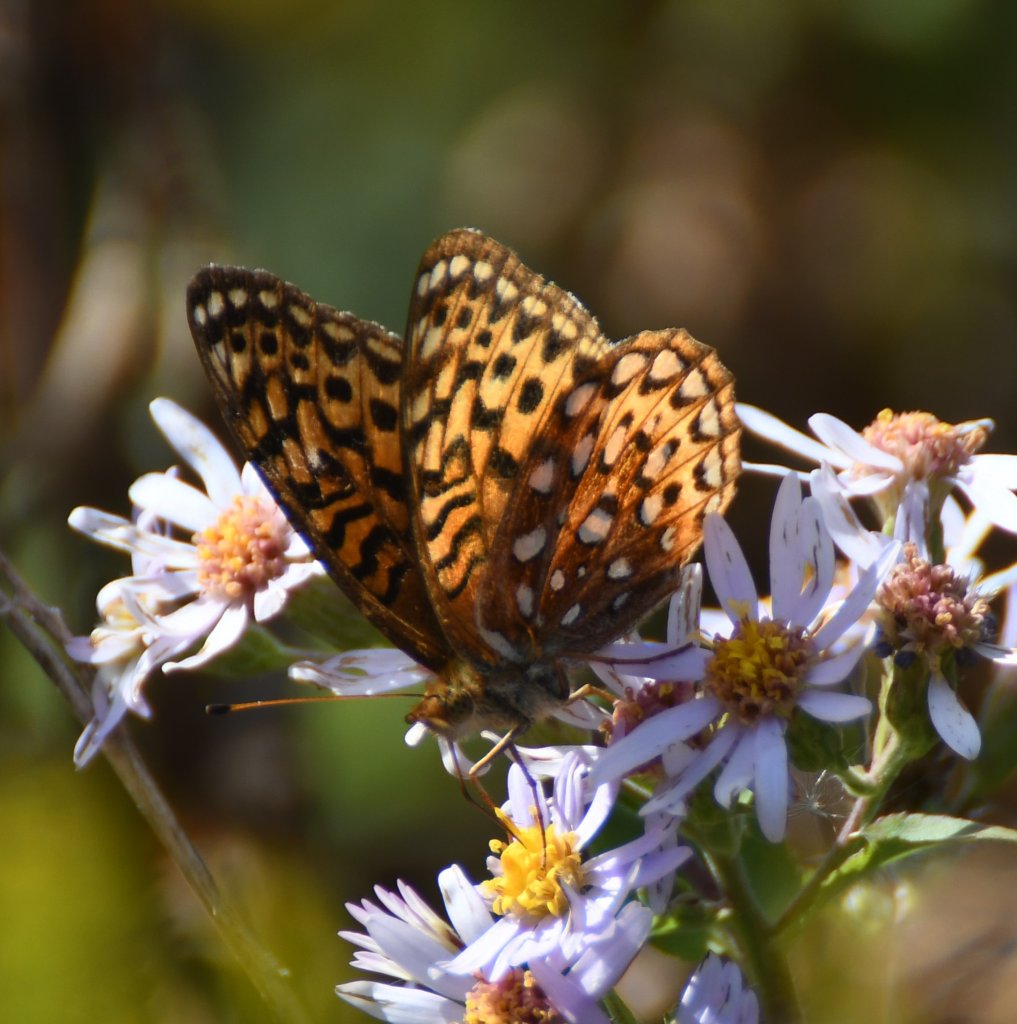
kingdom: Animalia
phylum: Arthropoda
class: Insecta
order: Lepidoptera
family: Nymphalidae
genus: Speyeria
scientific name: Speyeria aphrodite
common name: Aphrodite Fritillary
